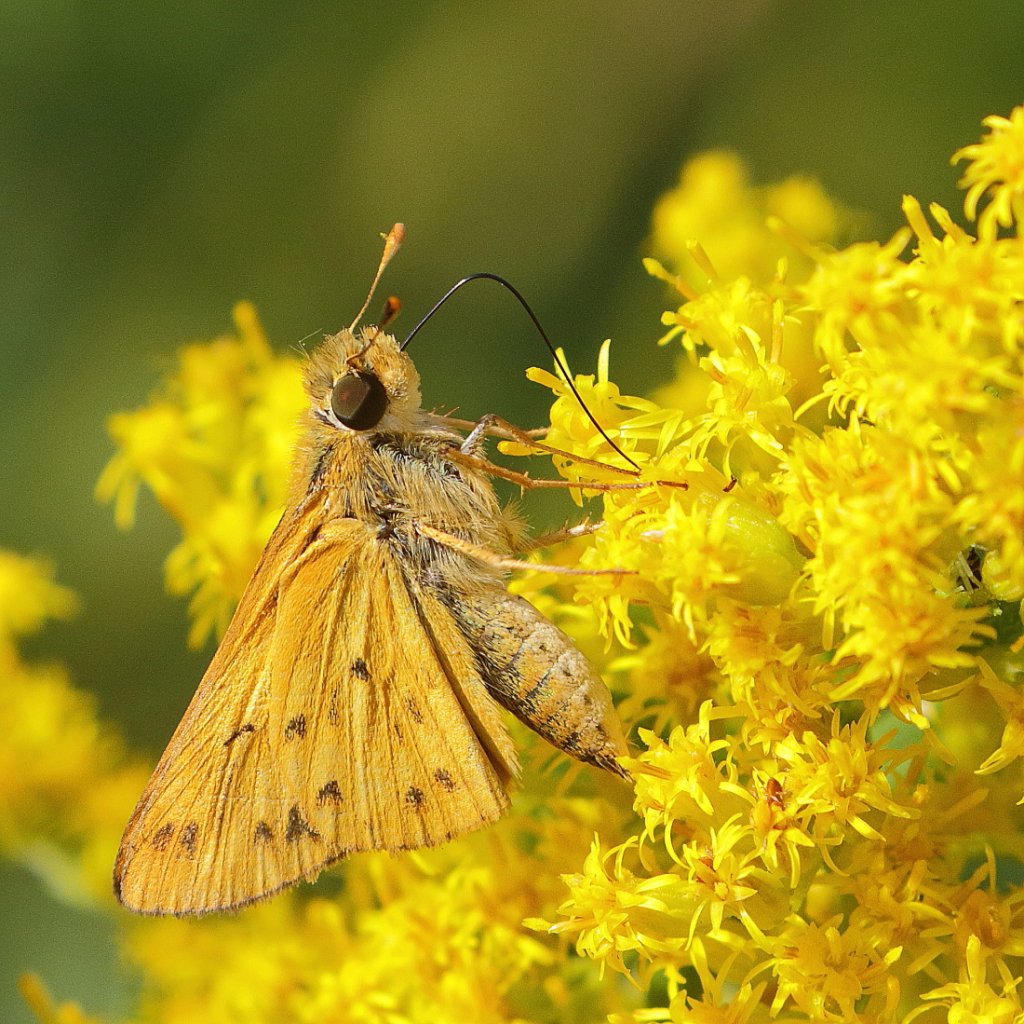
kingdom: Animalia
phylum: Arthropoda
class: Insecta
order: Lepidoptera
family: Hesperiidae
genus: Hylephila
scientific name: Hylephila phyleus
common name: Fiery Skipper
